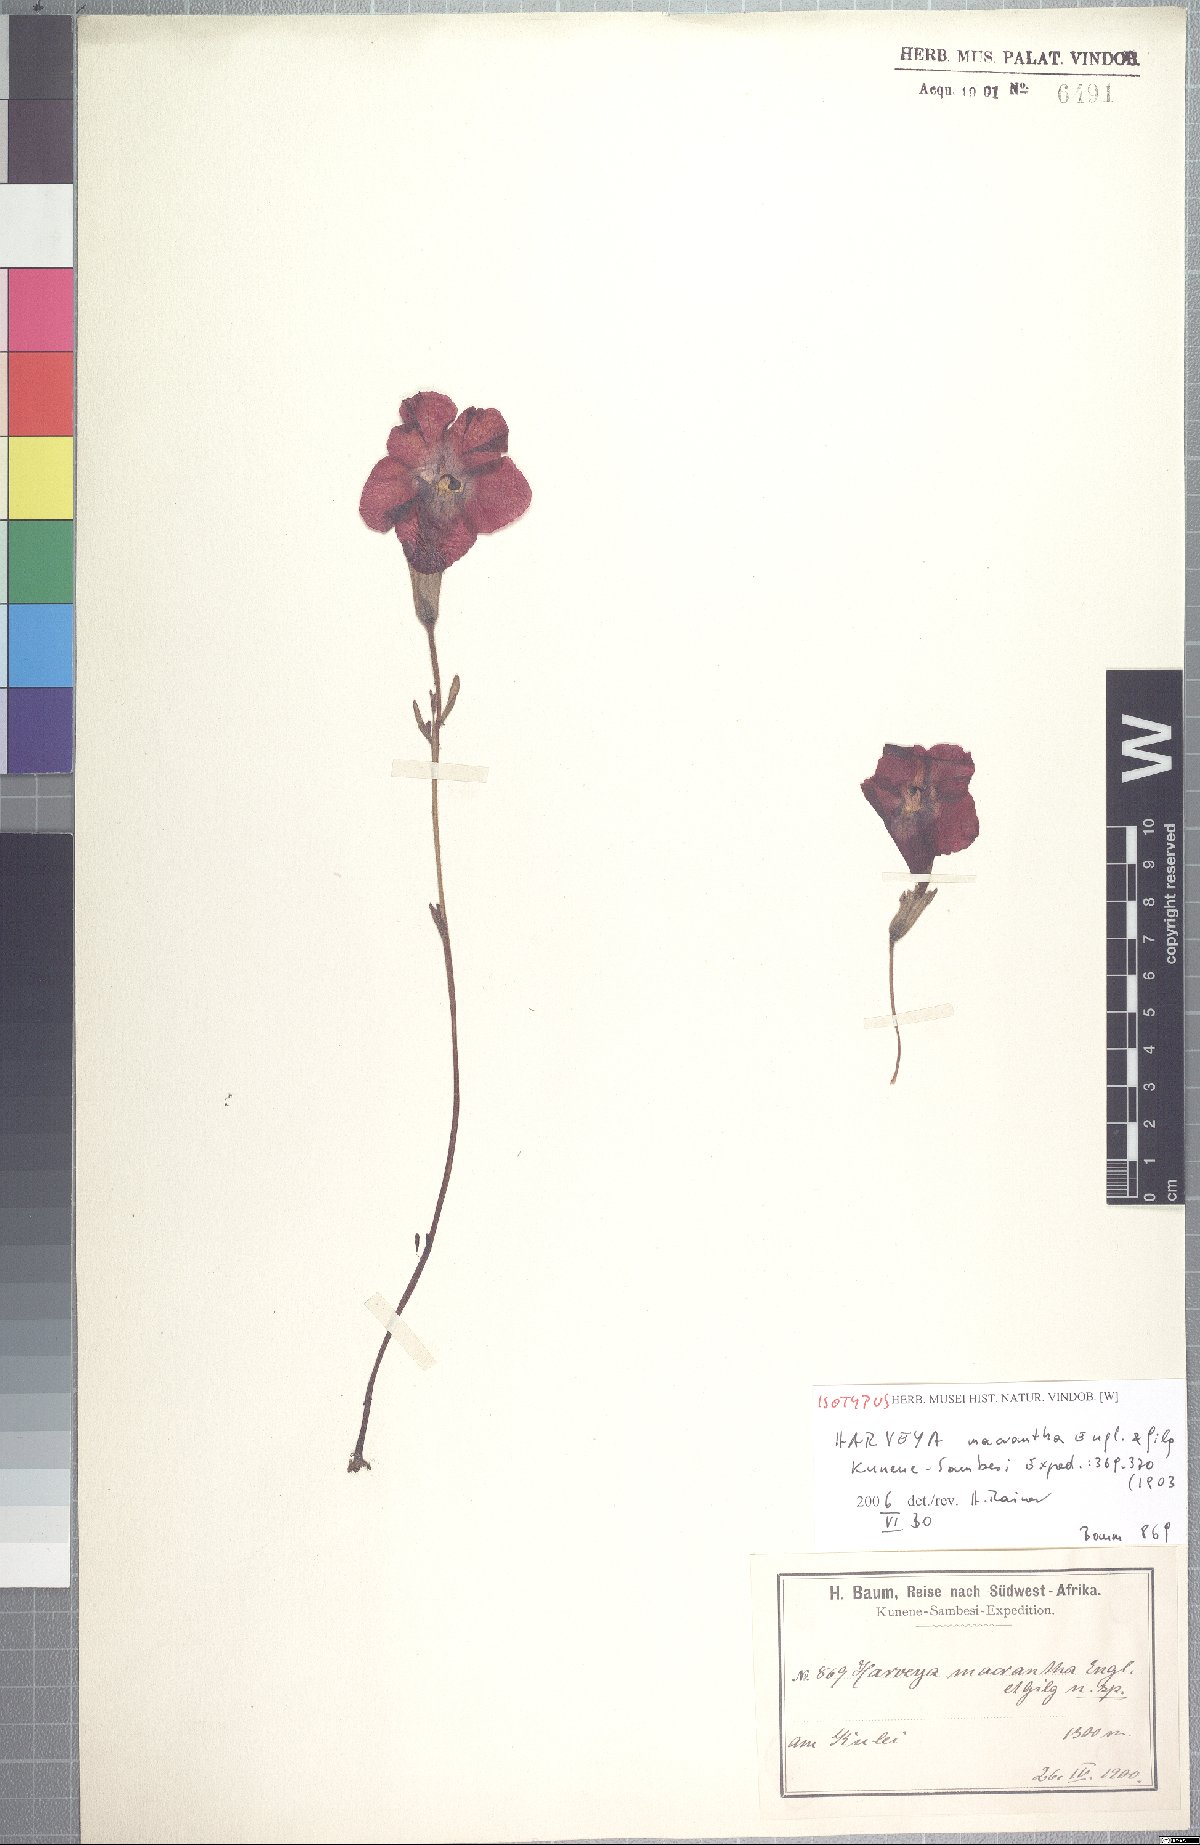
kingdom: Plantae
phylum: Tracheophyta
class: Magnoliopsida
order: Lamiales
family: Orobanchaceae
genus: Harveya
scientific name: Harveya andongensis
